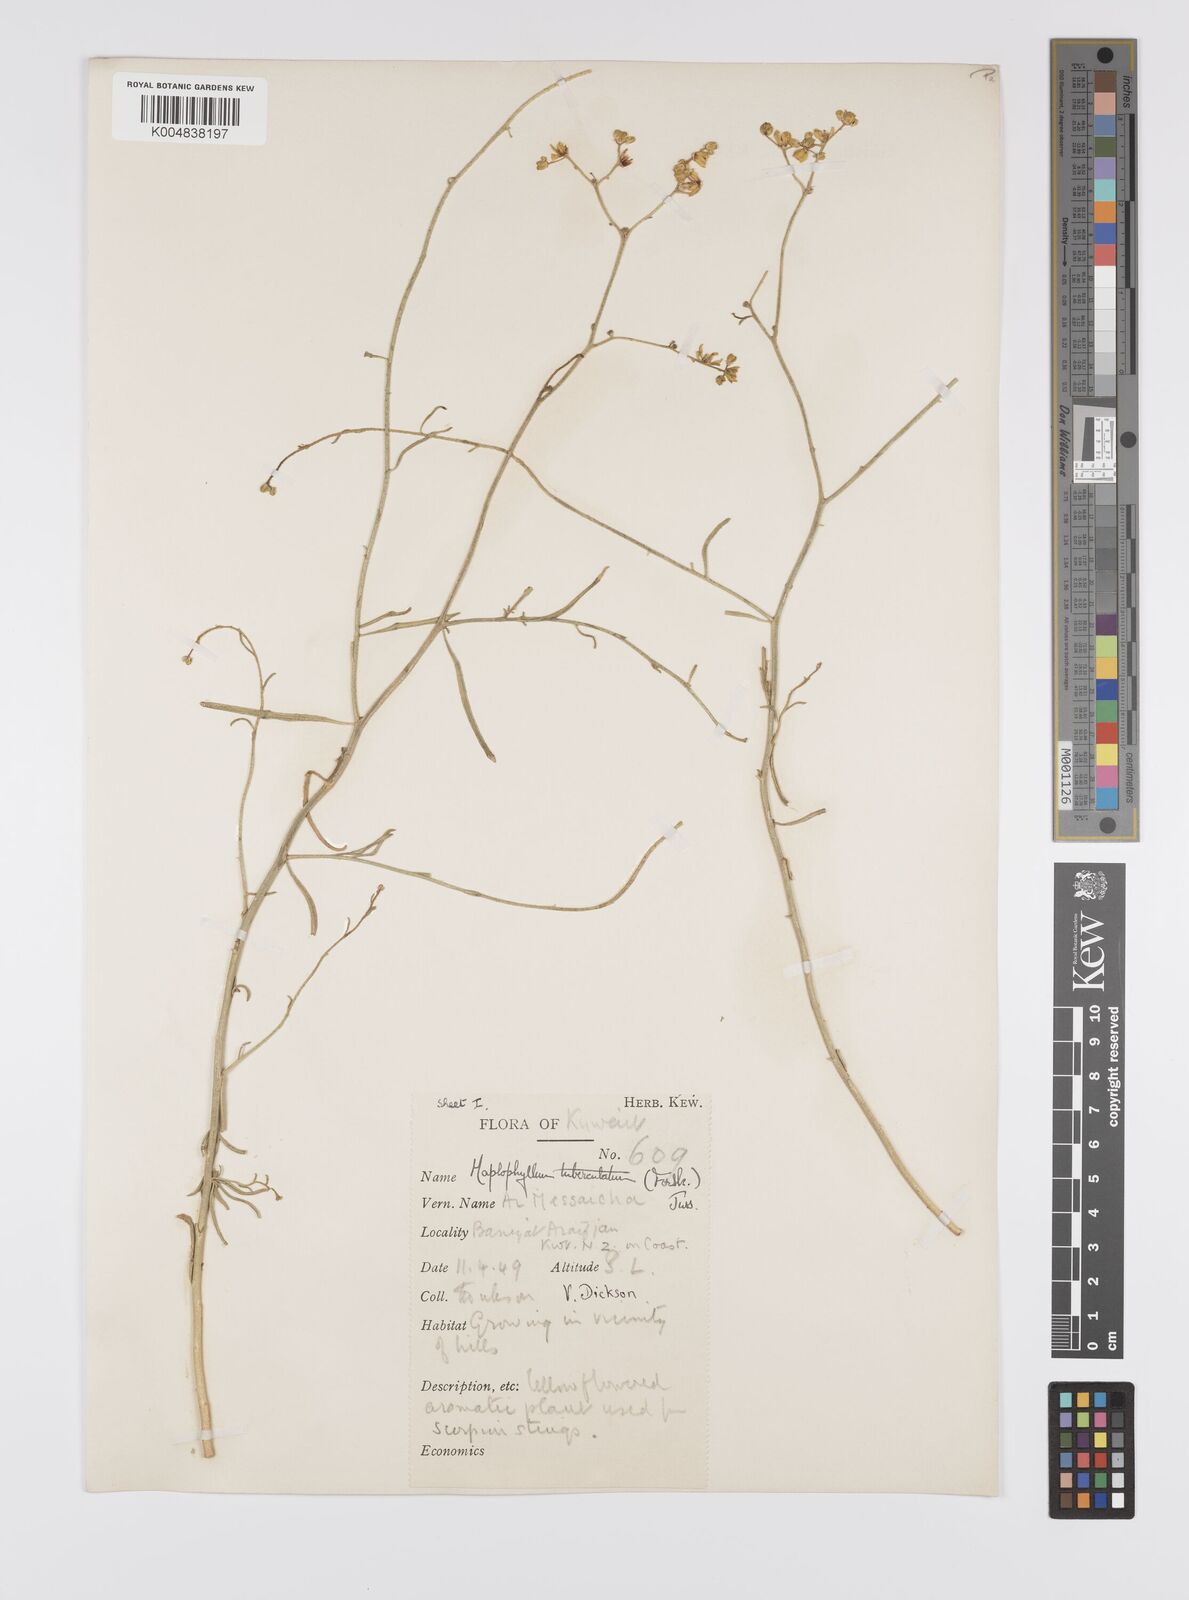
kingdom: Plantae
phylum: Tracheophyta
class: Magnoliopsida
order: Sapindales
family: Rutaceae
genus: Haplophyllum
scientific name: Haplophyllum tuberculatum
